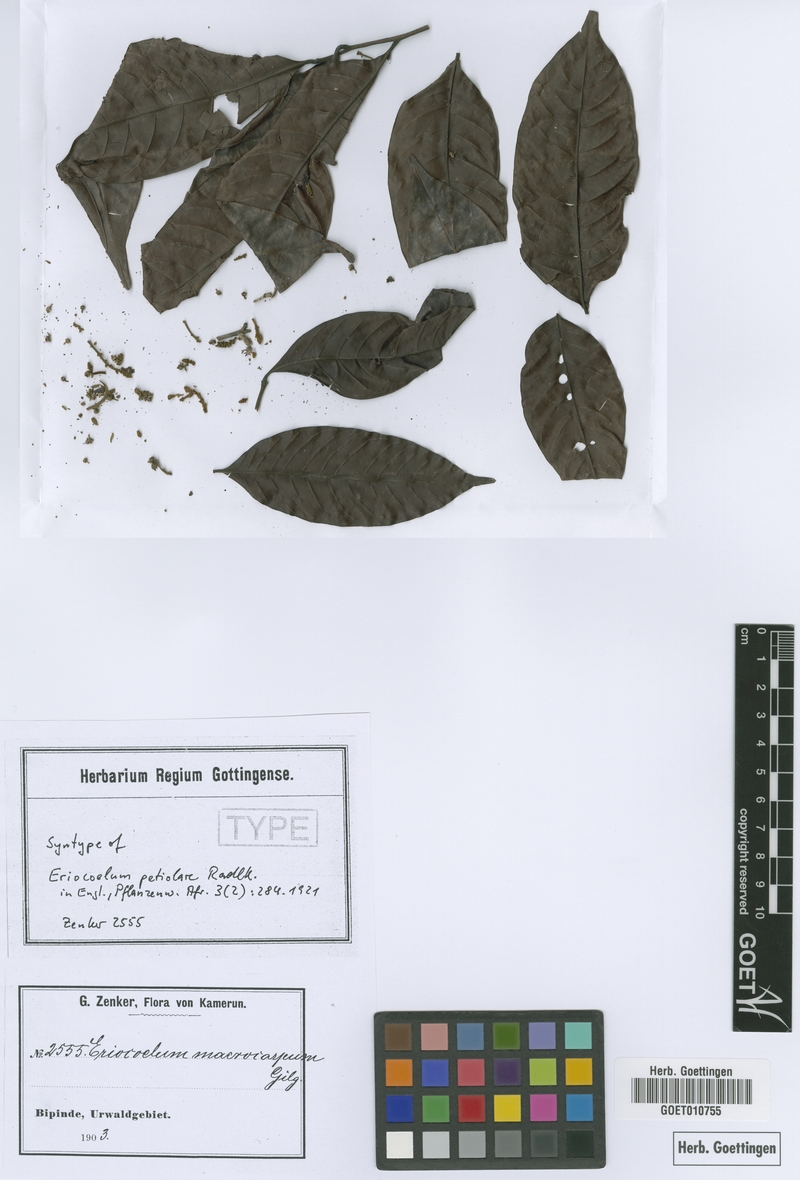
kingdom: Plantae
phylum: Tracheophyta
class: Magnoliopsida
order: Sapindales
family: Sapindaceae
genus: Eriocoelum
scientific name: Eriocoelum petiolare
